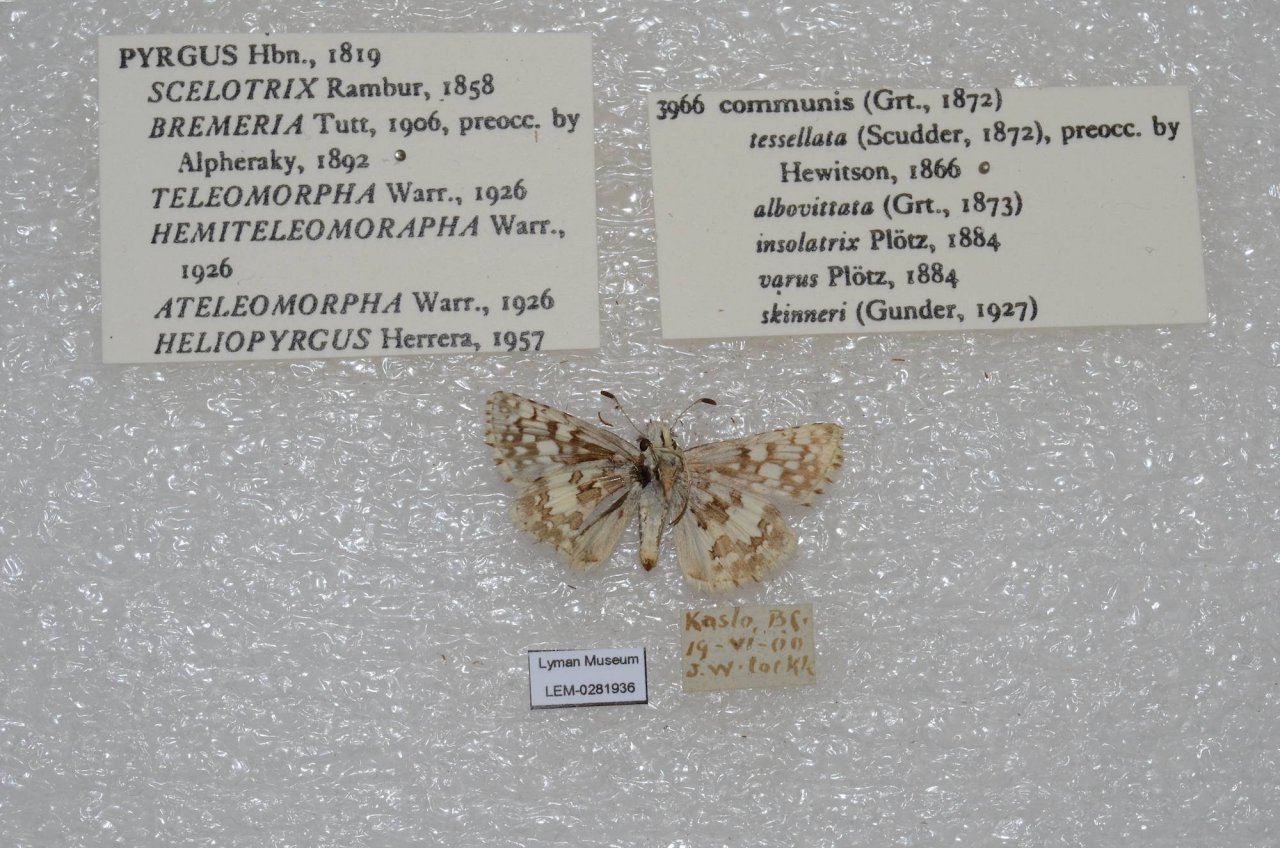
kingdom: Animalia
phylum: Arthropoda
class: Insecta
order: Lepidoptera
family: Hesperiidae
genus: Pyrgus
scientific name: Pyrgus communis
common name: Common Checkered-Skipper
